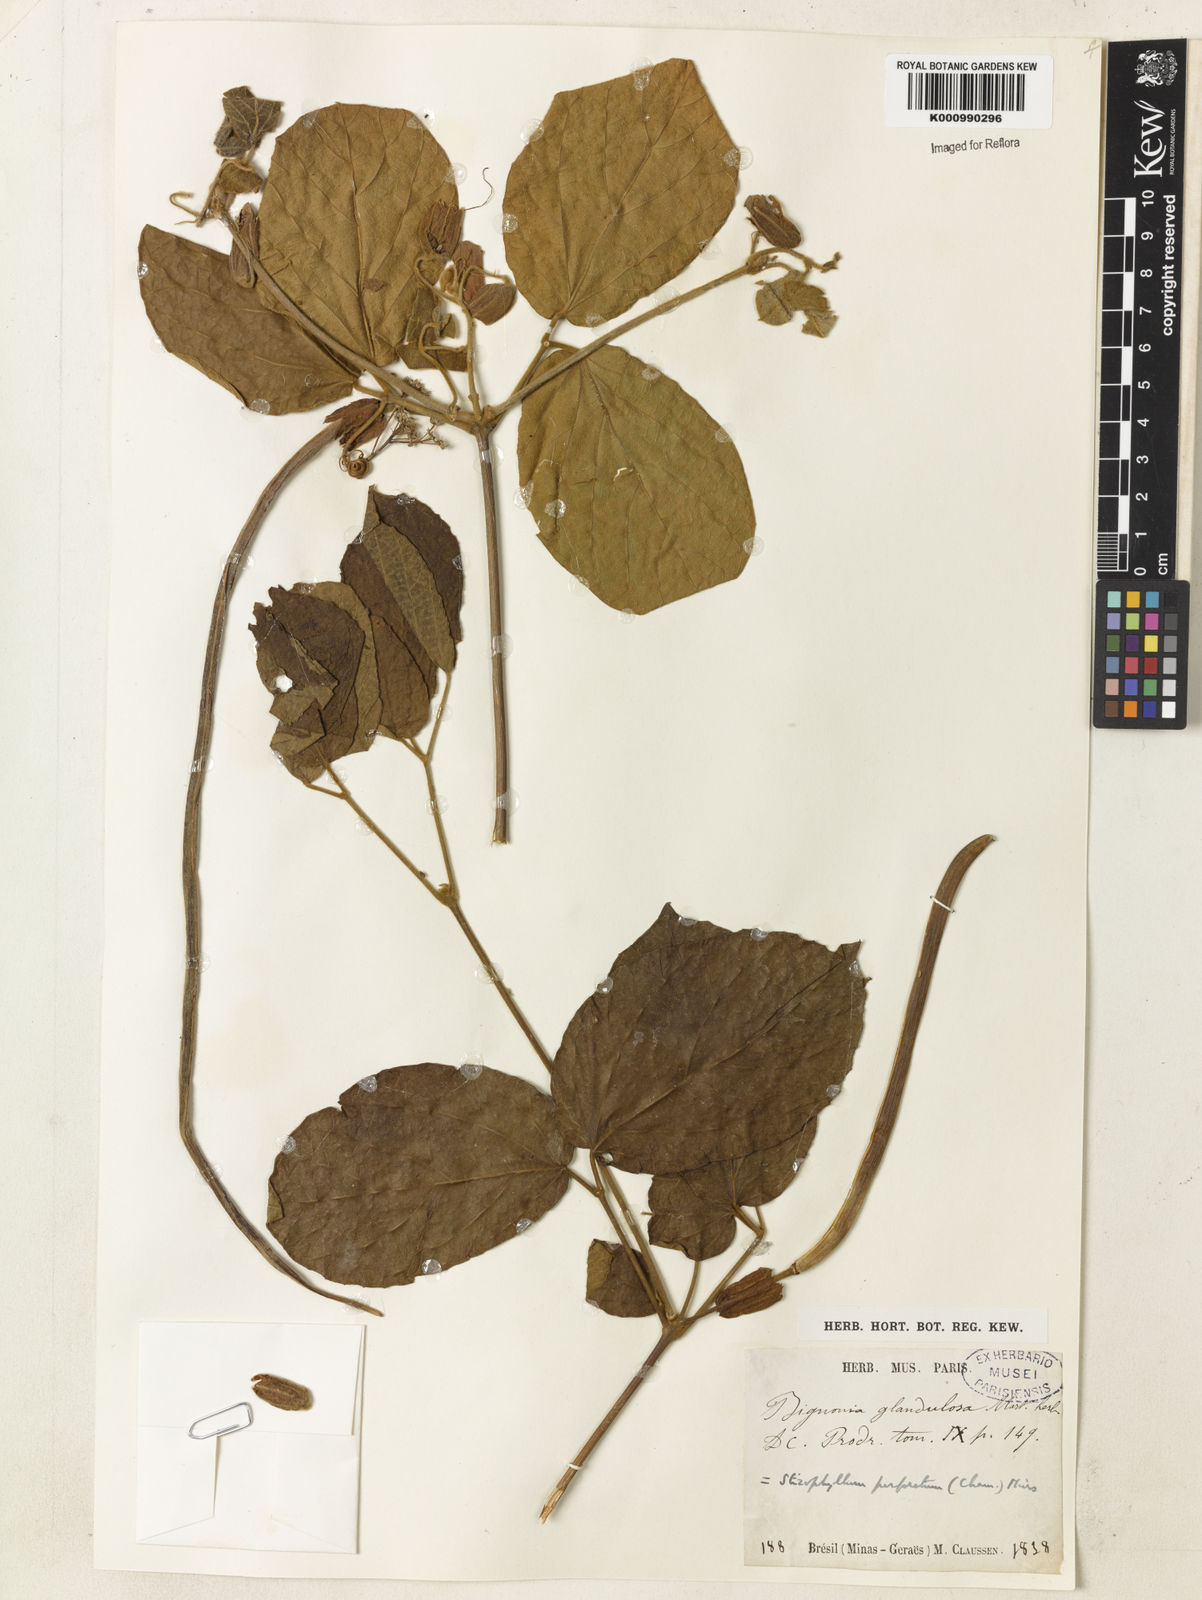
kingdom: Plantae
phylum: Tracheophyta
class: Magnoliopsida
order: Lamiales
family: Bignoniaceae
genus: Stizophyllum
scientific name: Stizophyllum perforatum
